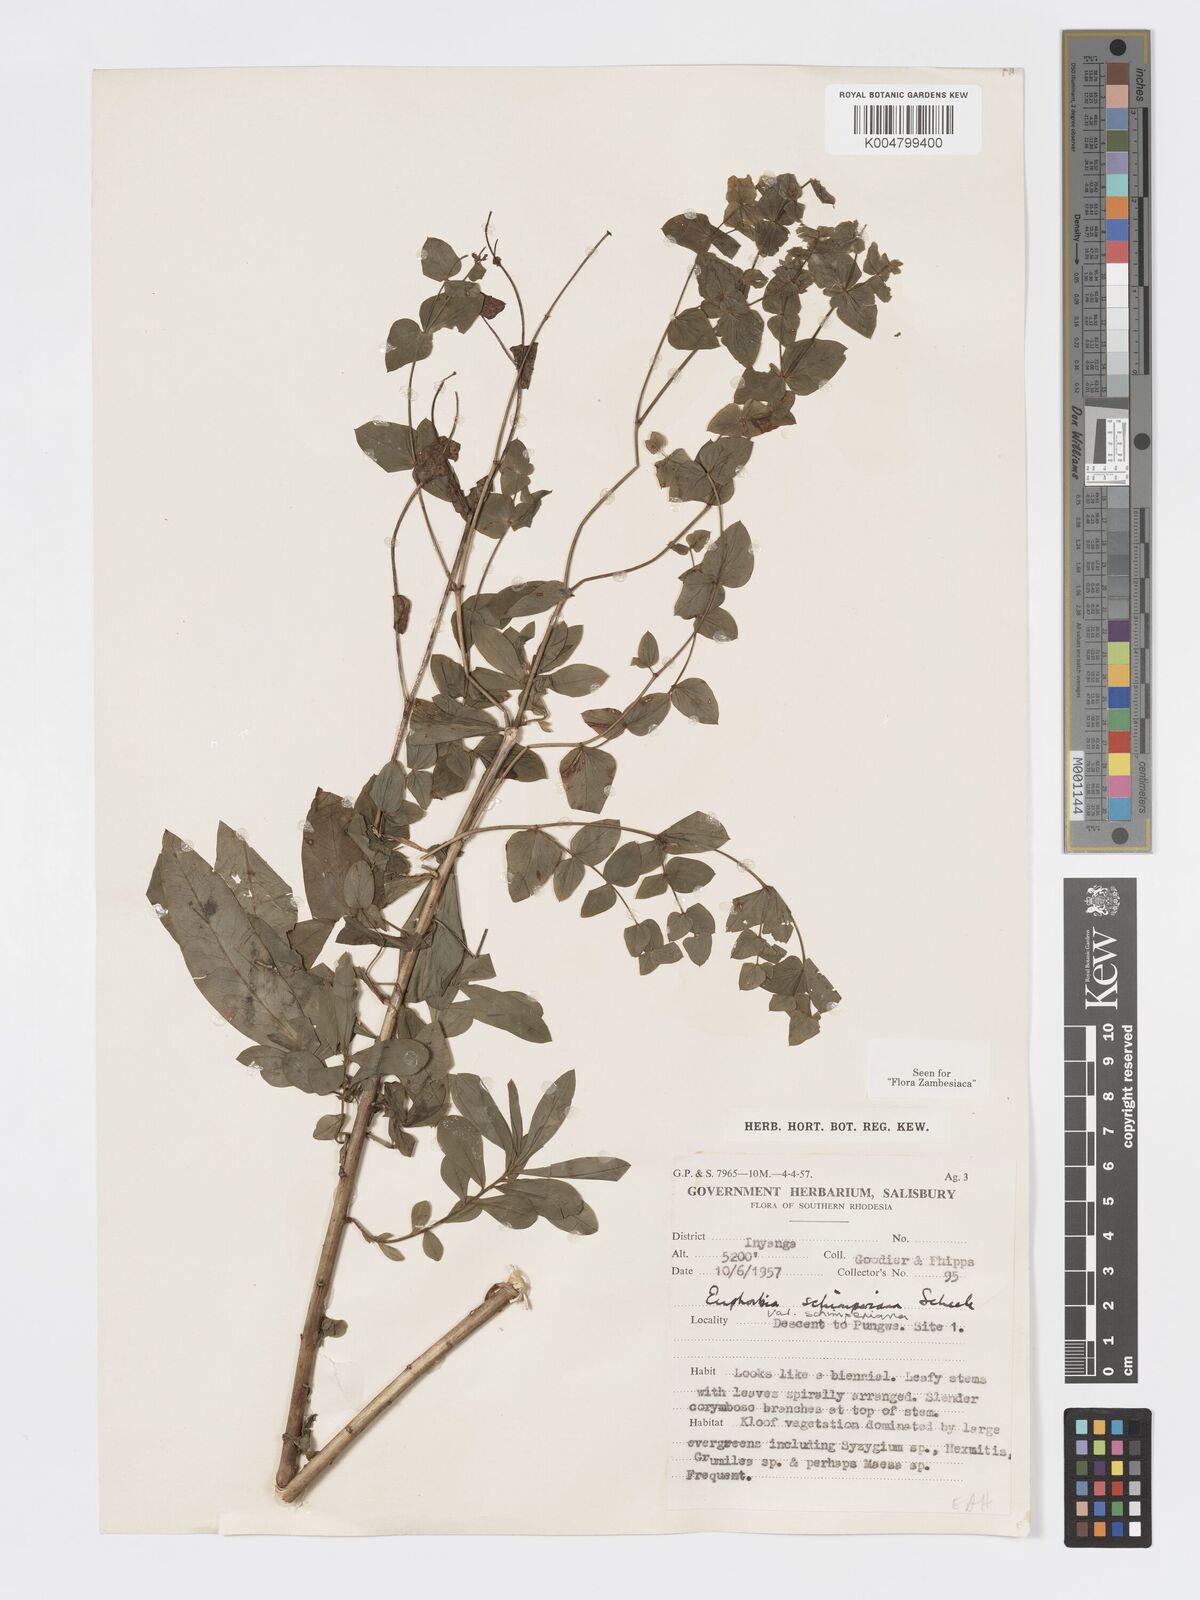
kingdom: Plantae
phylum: Tracheophyta
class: Magnoliopsida
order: Malpighiales
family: Euphorbiaceae
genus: Euphorbia
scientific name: Euphorbia schimperiana
